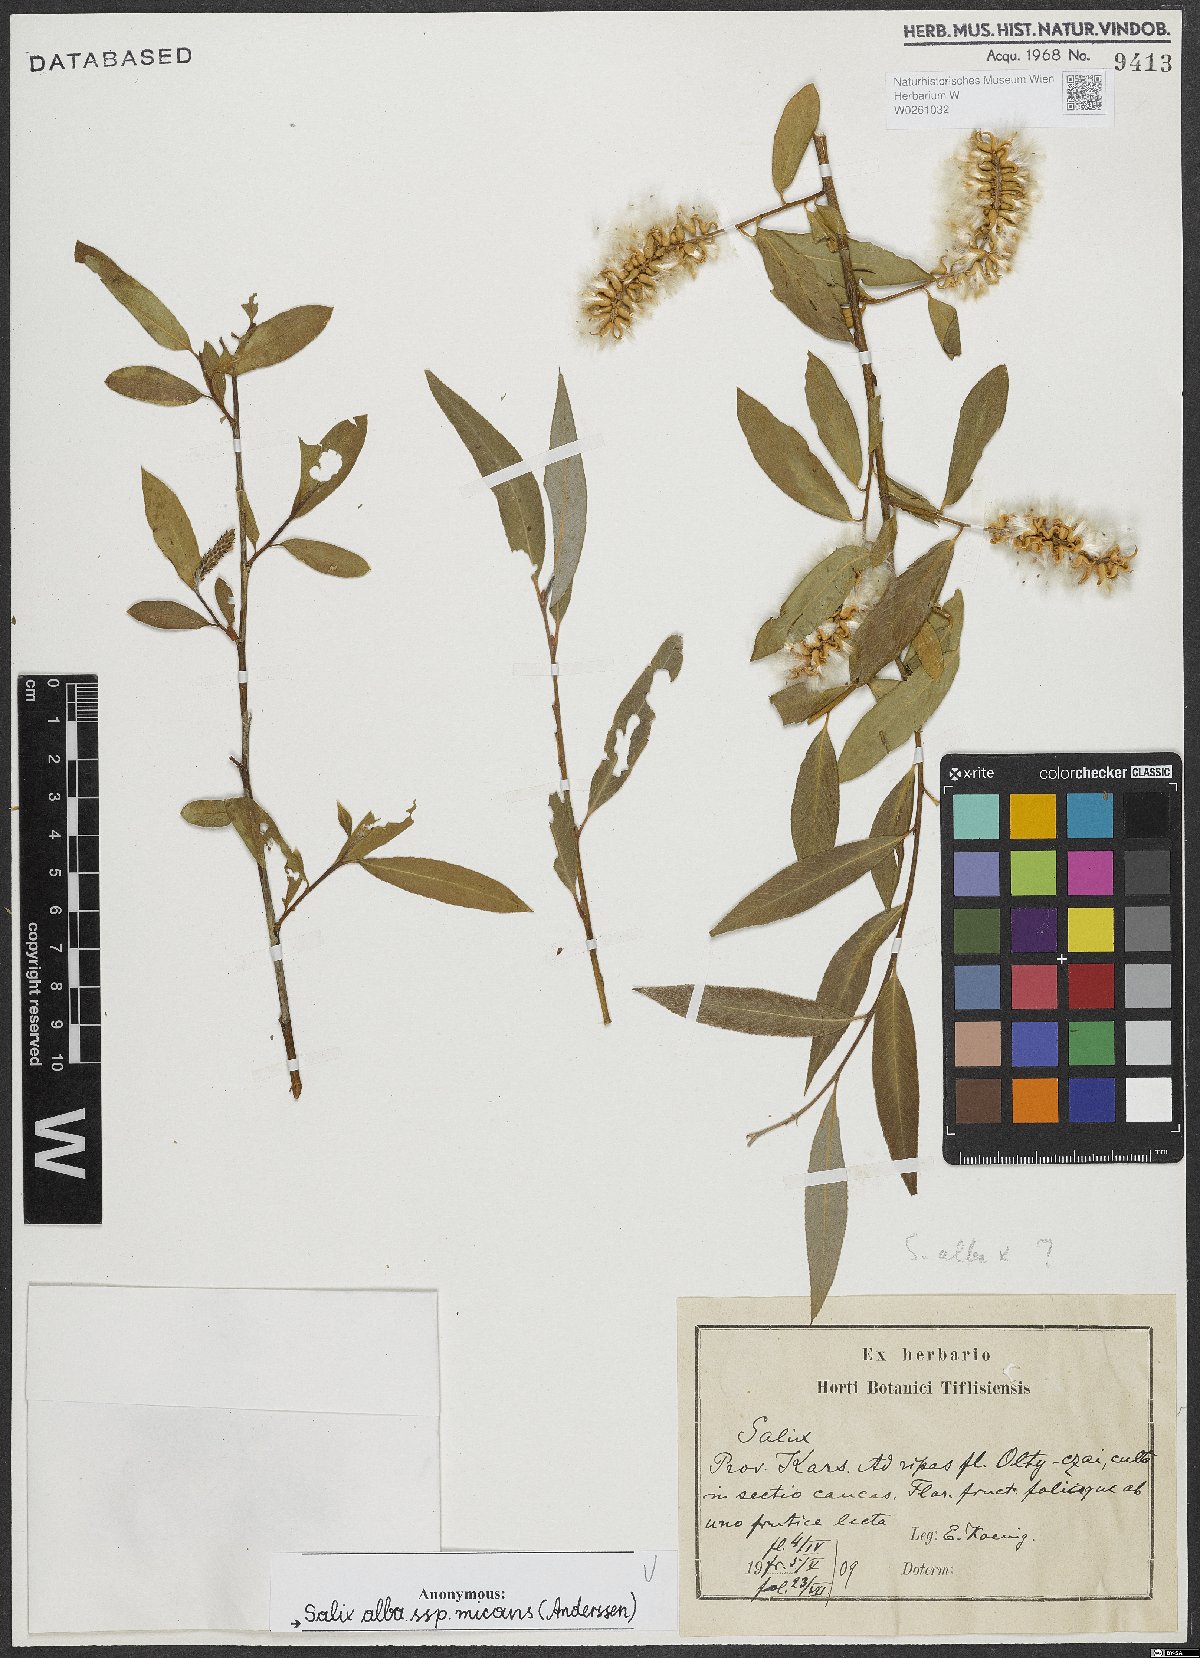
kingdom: Plantae
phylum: Tracheophyta
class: Magnoliopsida
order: Malpighiales
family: Salicaceae
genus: Salix
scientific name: Salix alba
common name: White willow
